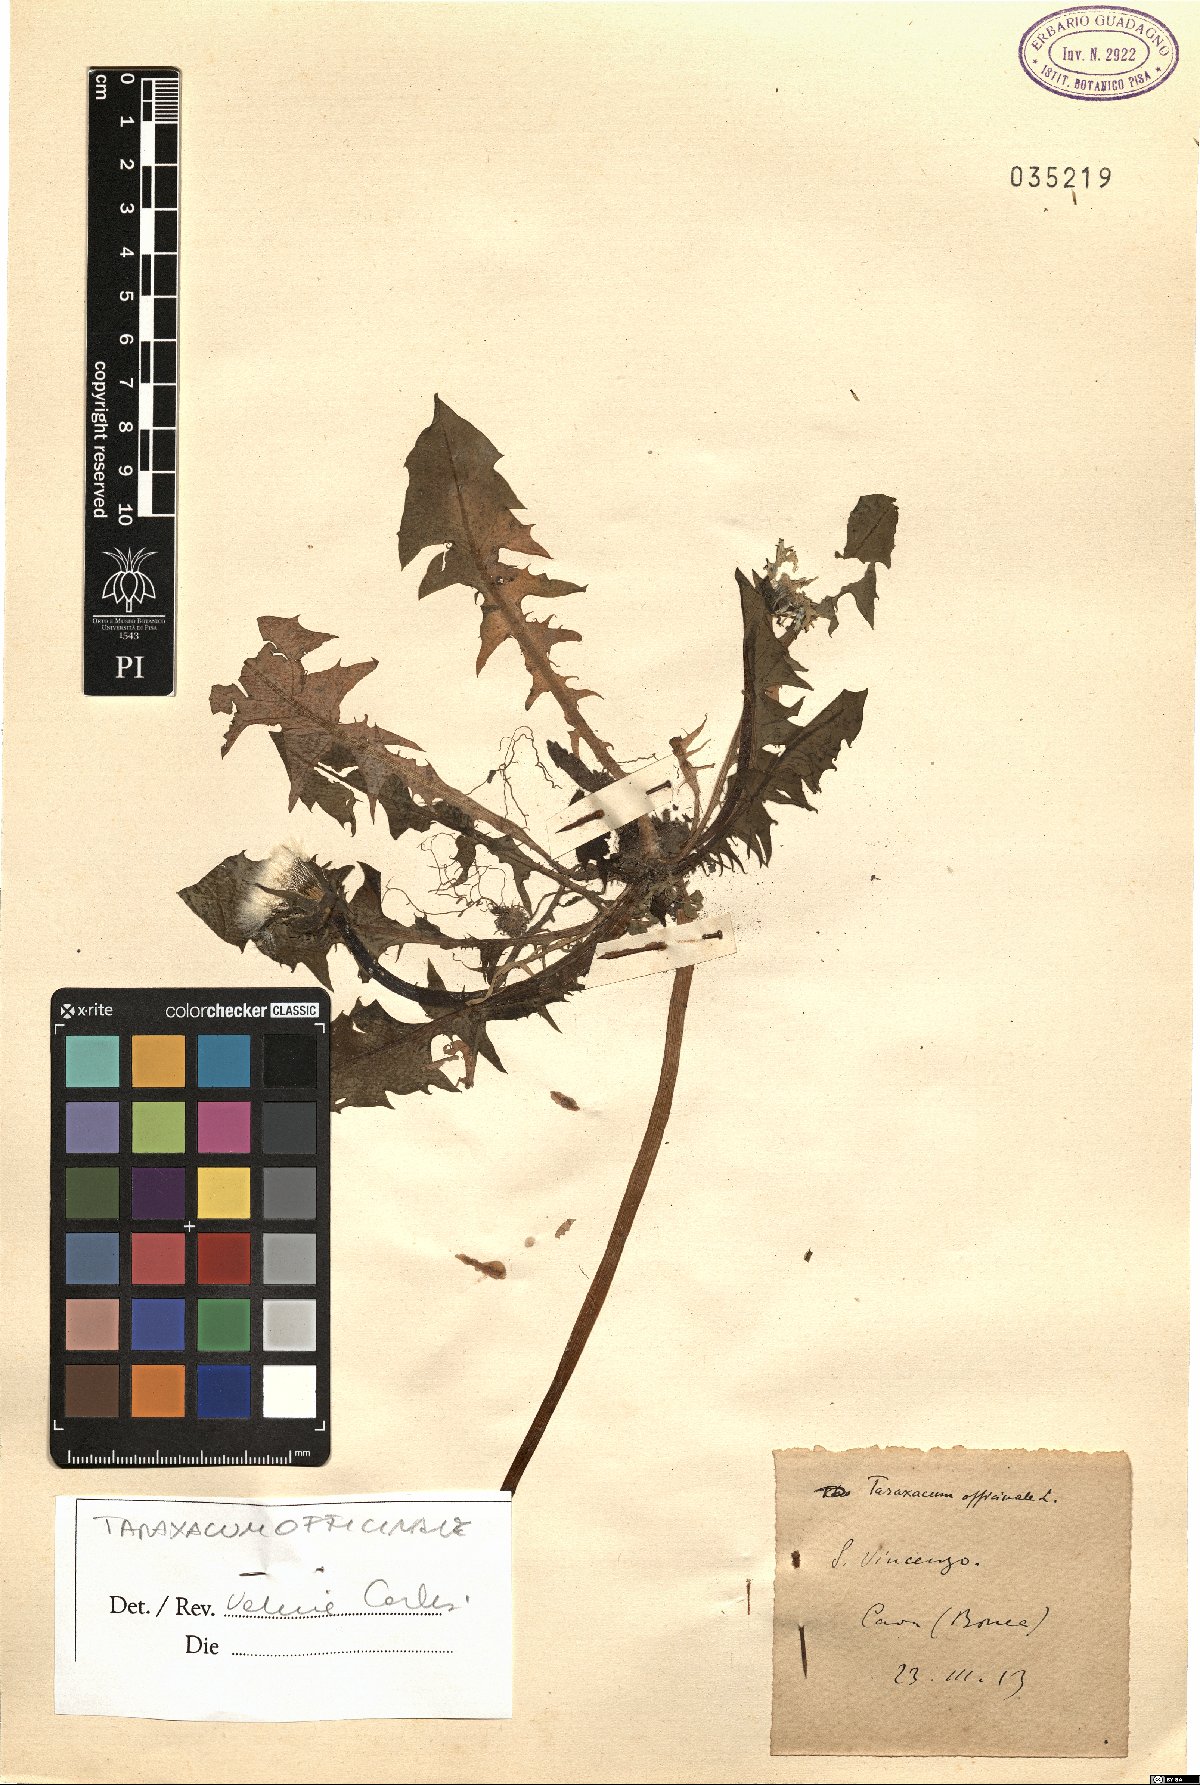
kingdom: Plantae
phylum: Tracheophyta
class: Magnoliopsida
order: Asterales
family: Asteraceae
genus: Taraxacum
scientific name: Taraxacum officinale
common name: Common dandelion
